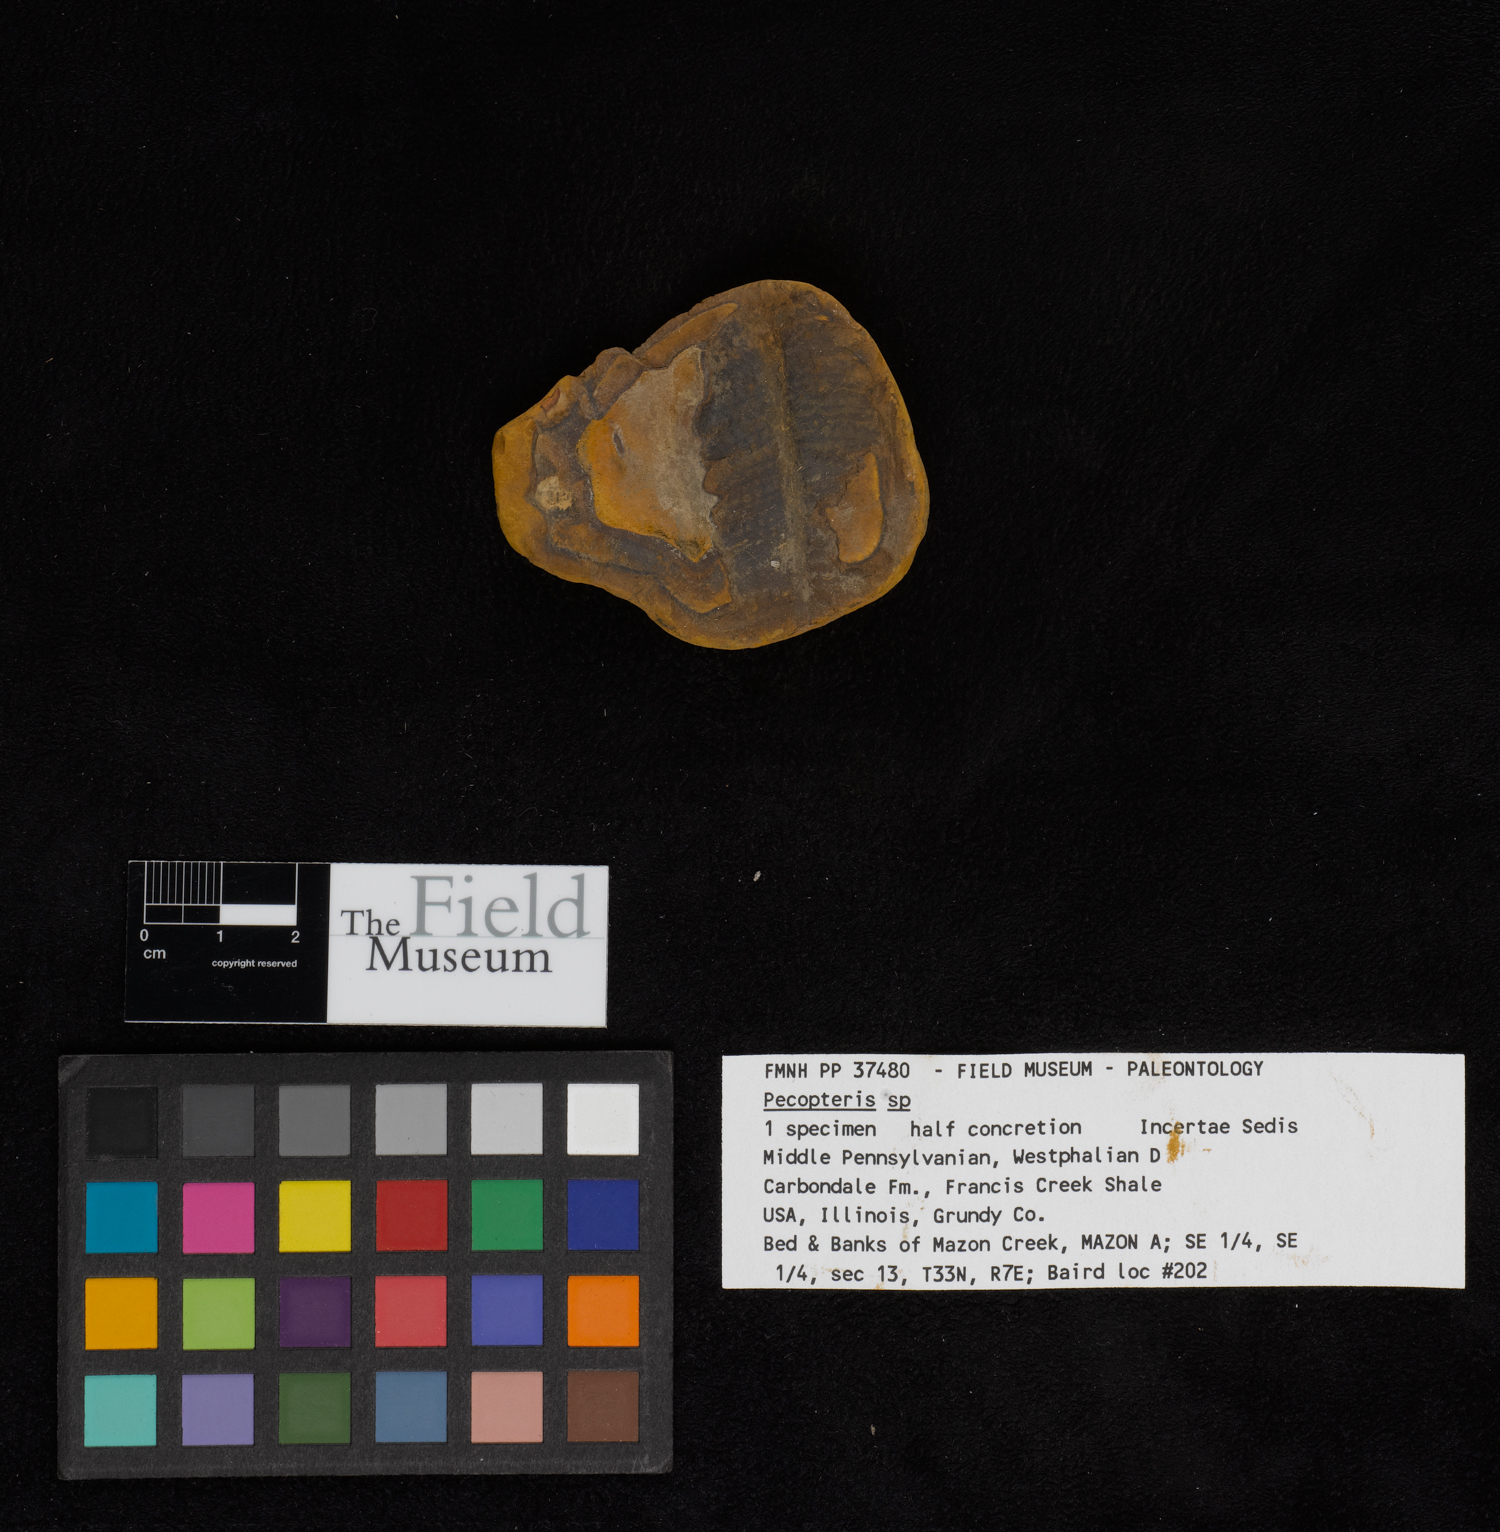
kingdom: Plantae
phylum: Tracheophyta
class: Polypodiopsida
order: Marattiales
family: Asterothecaceae
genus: Pecopteris
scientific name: Pecopteris
